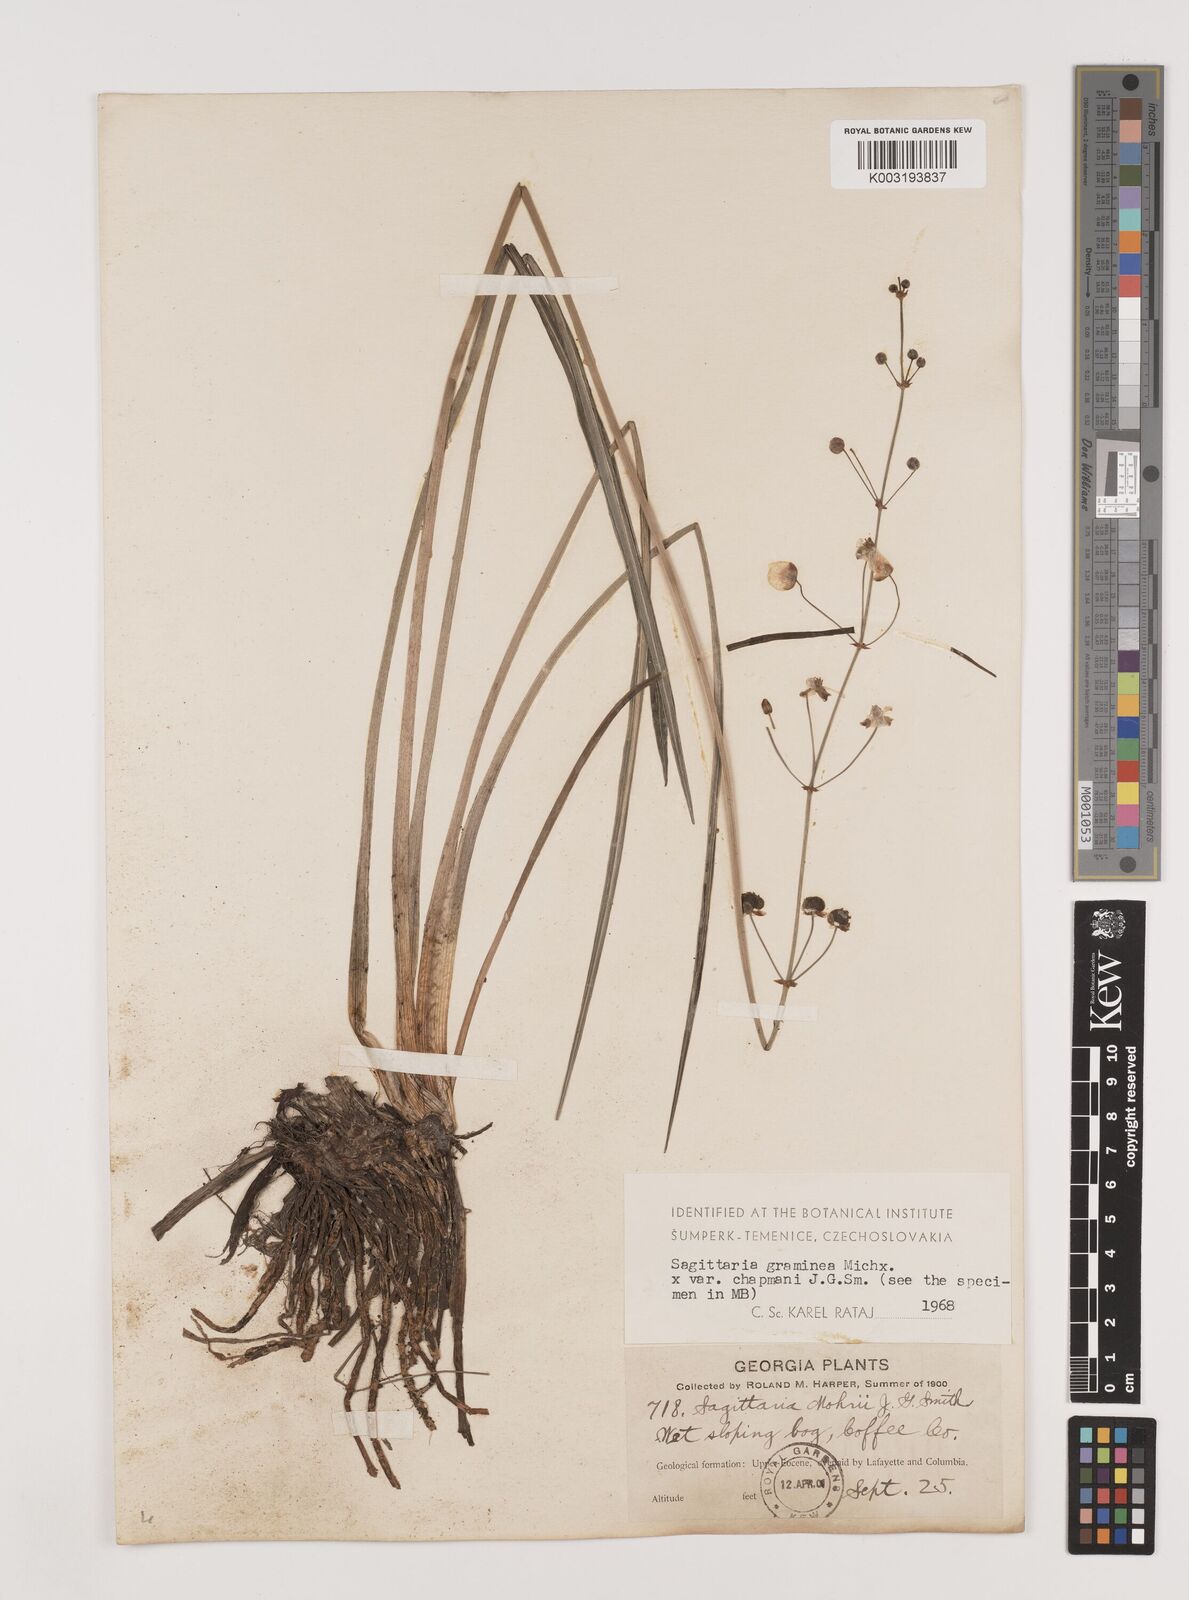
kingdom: Plantae
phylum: Tracheophyta
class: Liliopsida
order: Alismatales
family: Alismataceae
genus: Sagittaria
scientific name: Sagittaria graminea
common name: Grass-leaved arrowhead
